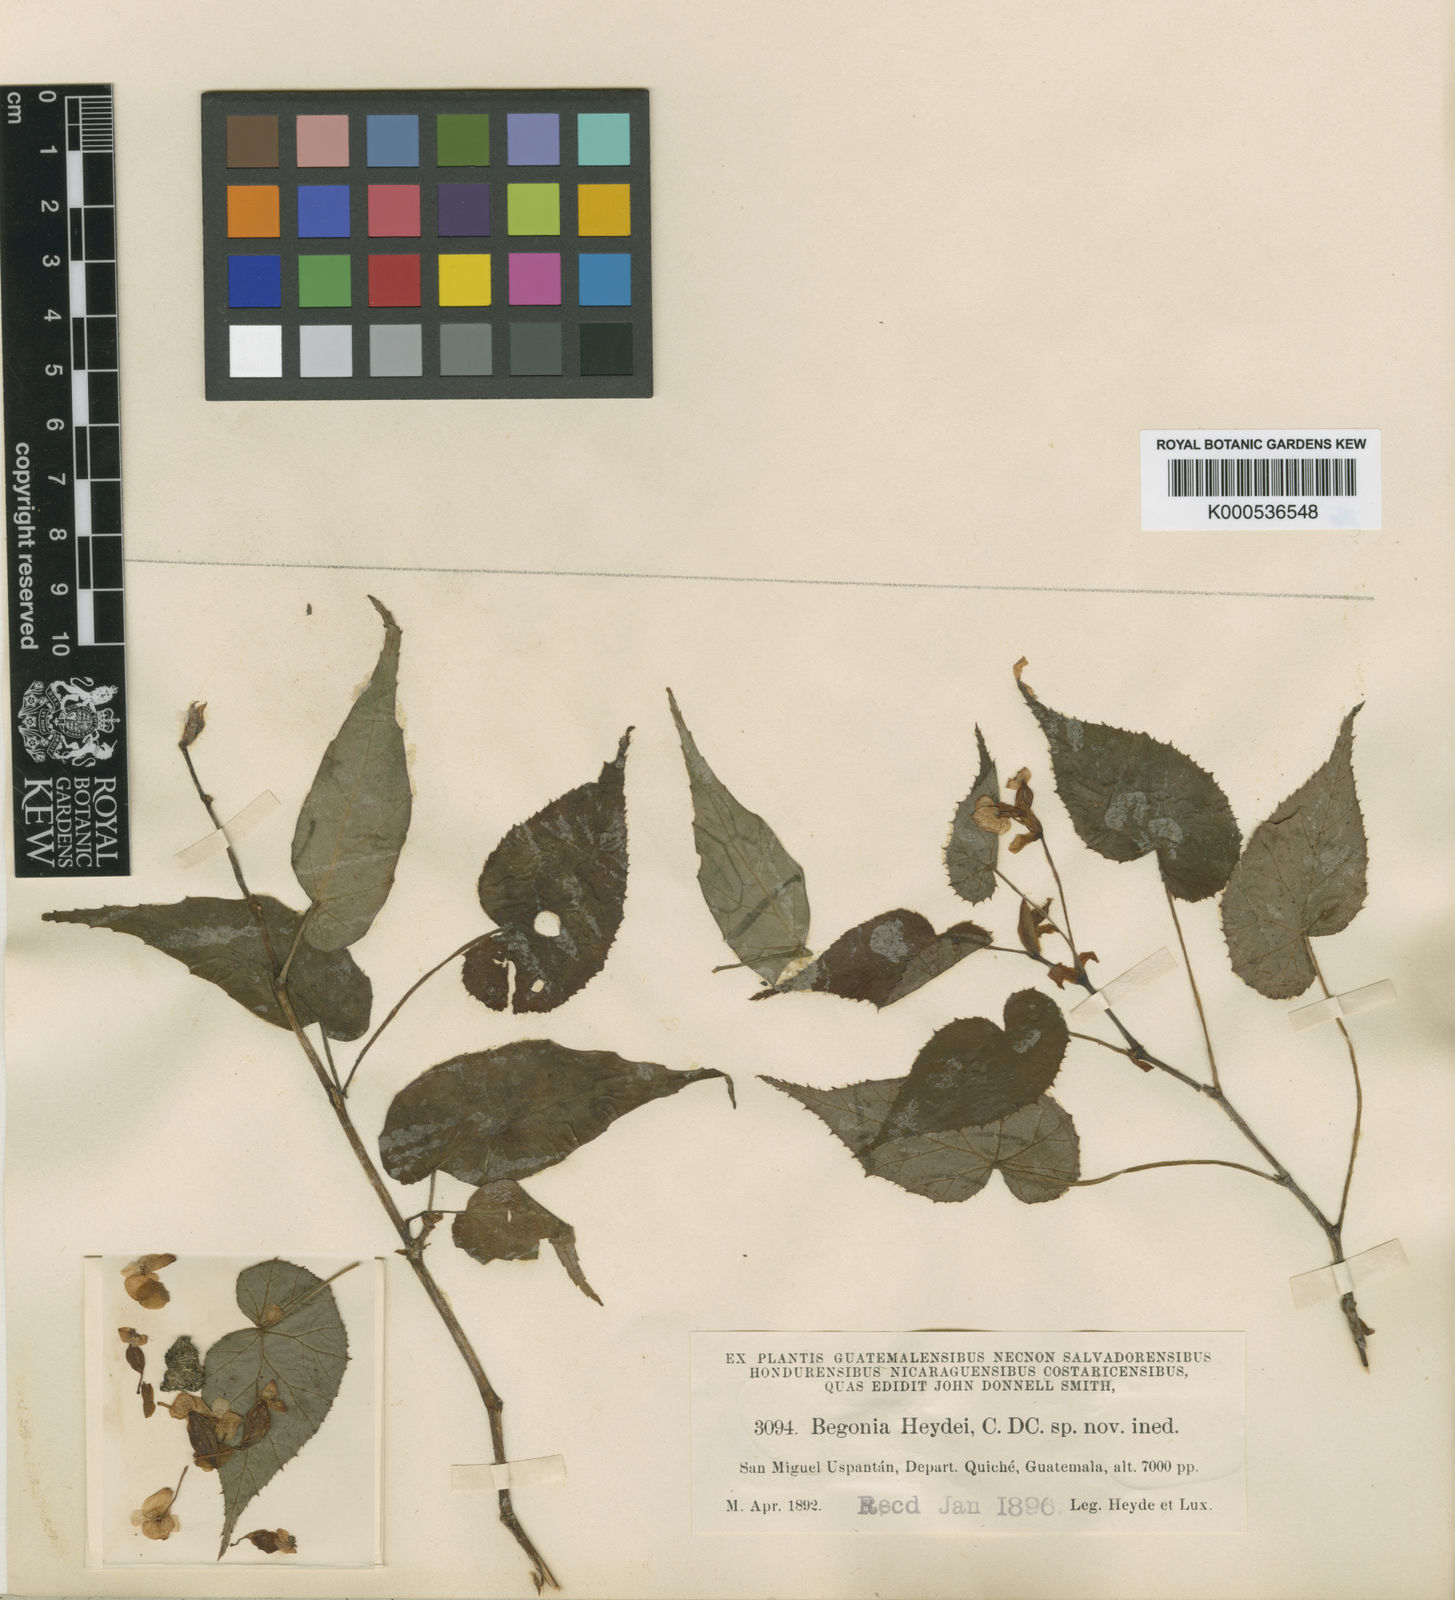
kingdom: Plantae
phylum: Tracheophyta
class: Magnoliopsida
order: Cucurbitales
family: Begoniaceae
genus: Begonia
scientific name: Begonia heydei
